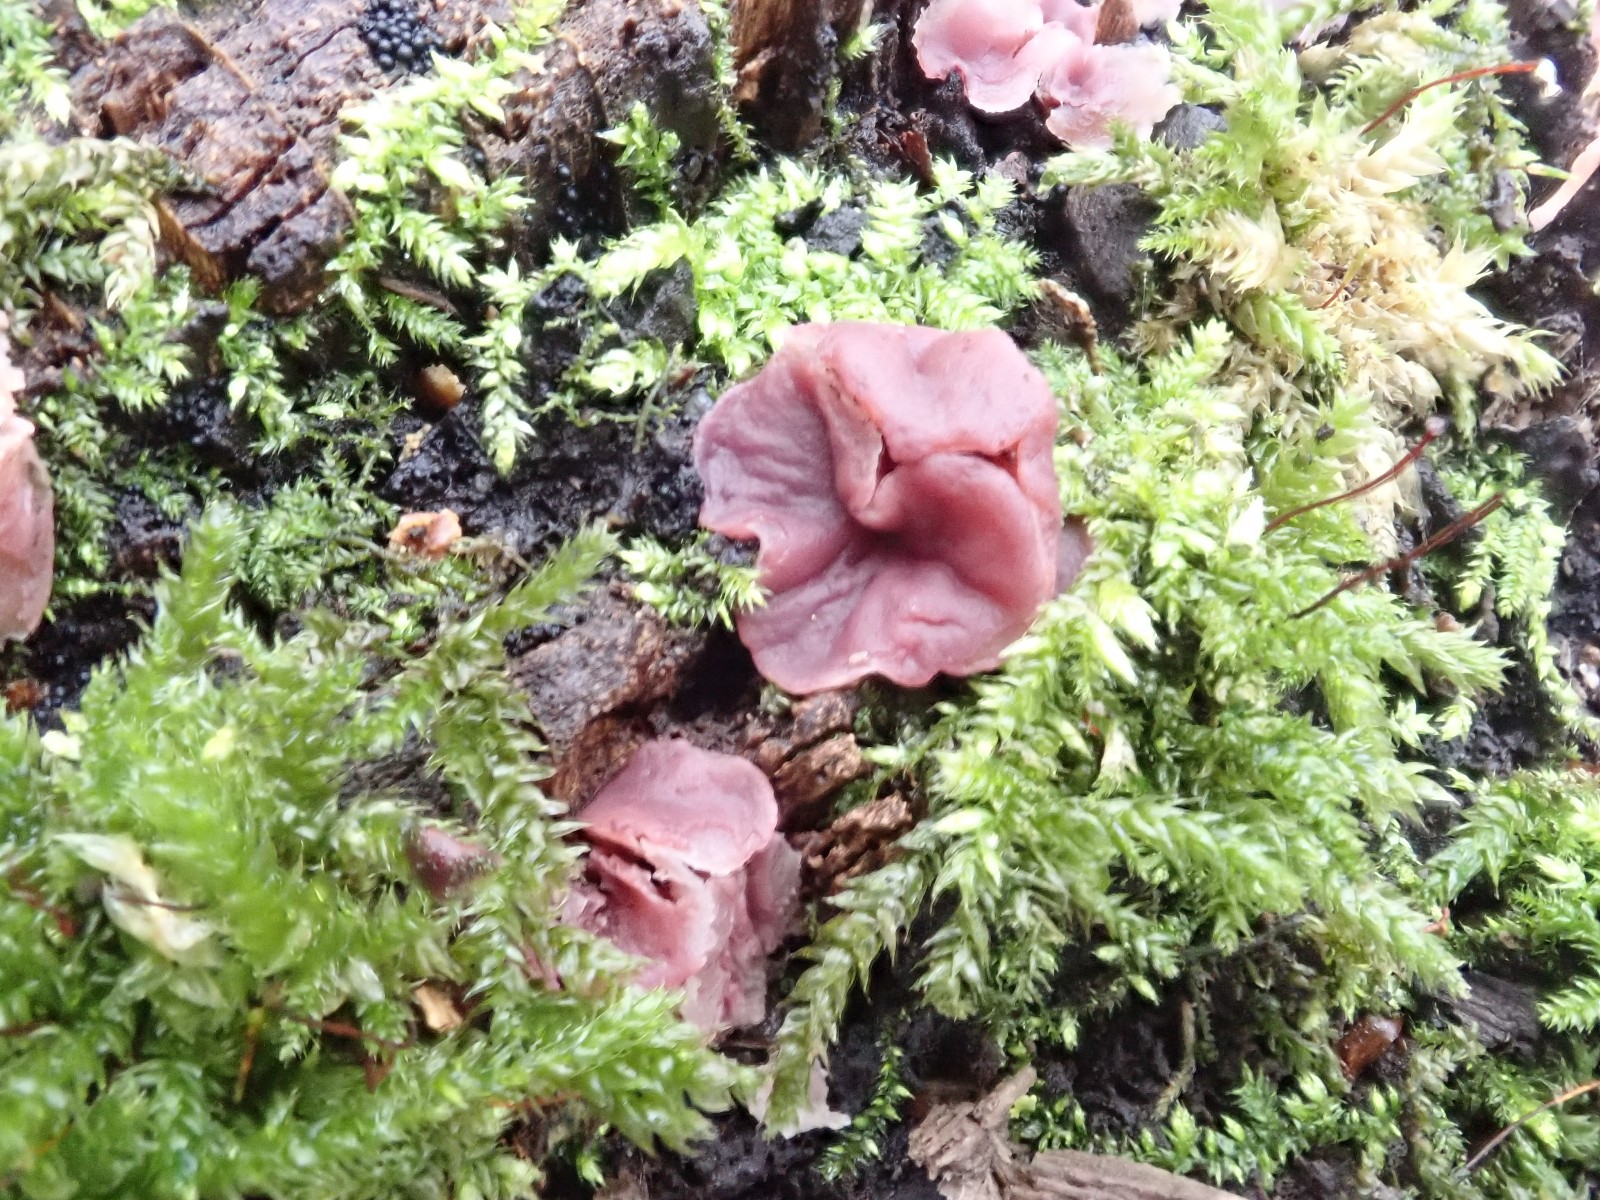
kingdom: Fungi
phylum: Ascomycota
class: Leotiomycetes
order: Helotiales
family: Gelatinodiscaceae
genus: Ascocoryne
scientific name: Ascocoryne cylichnium
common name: stor sejskive
